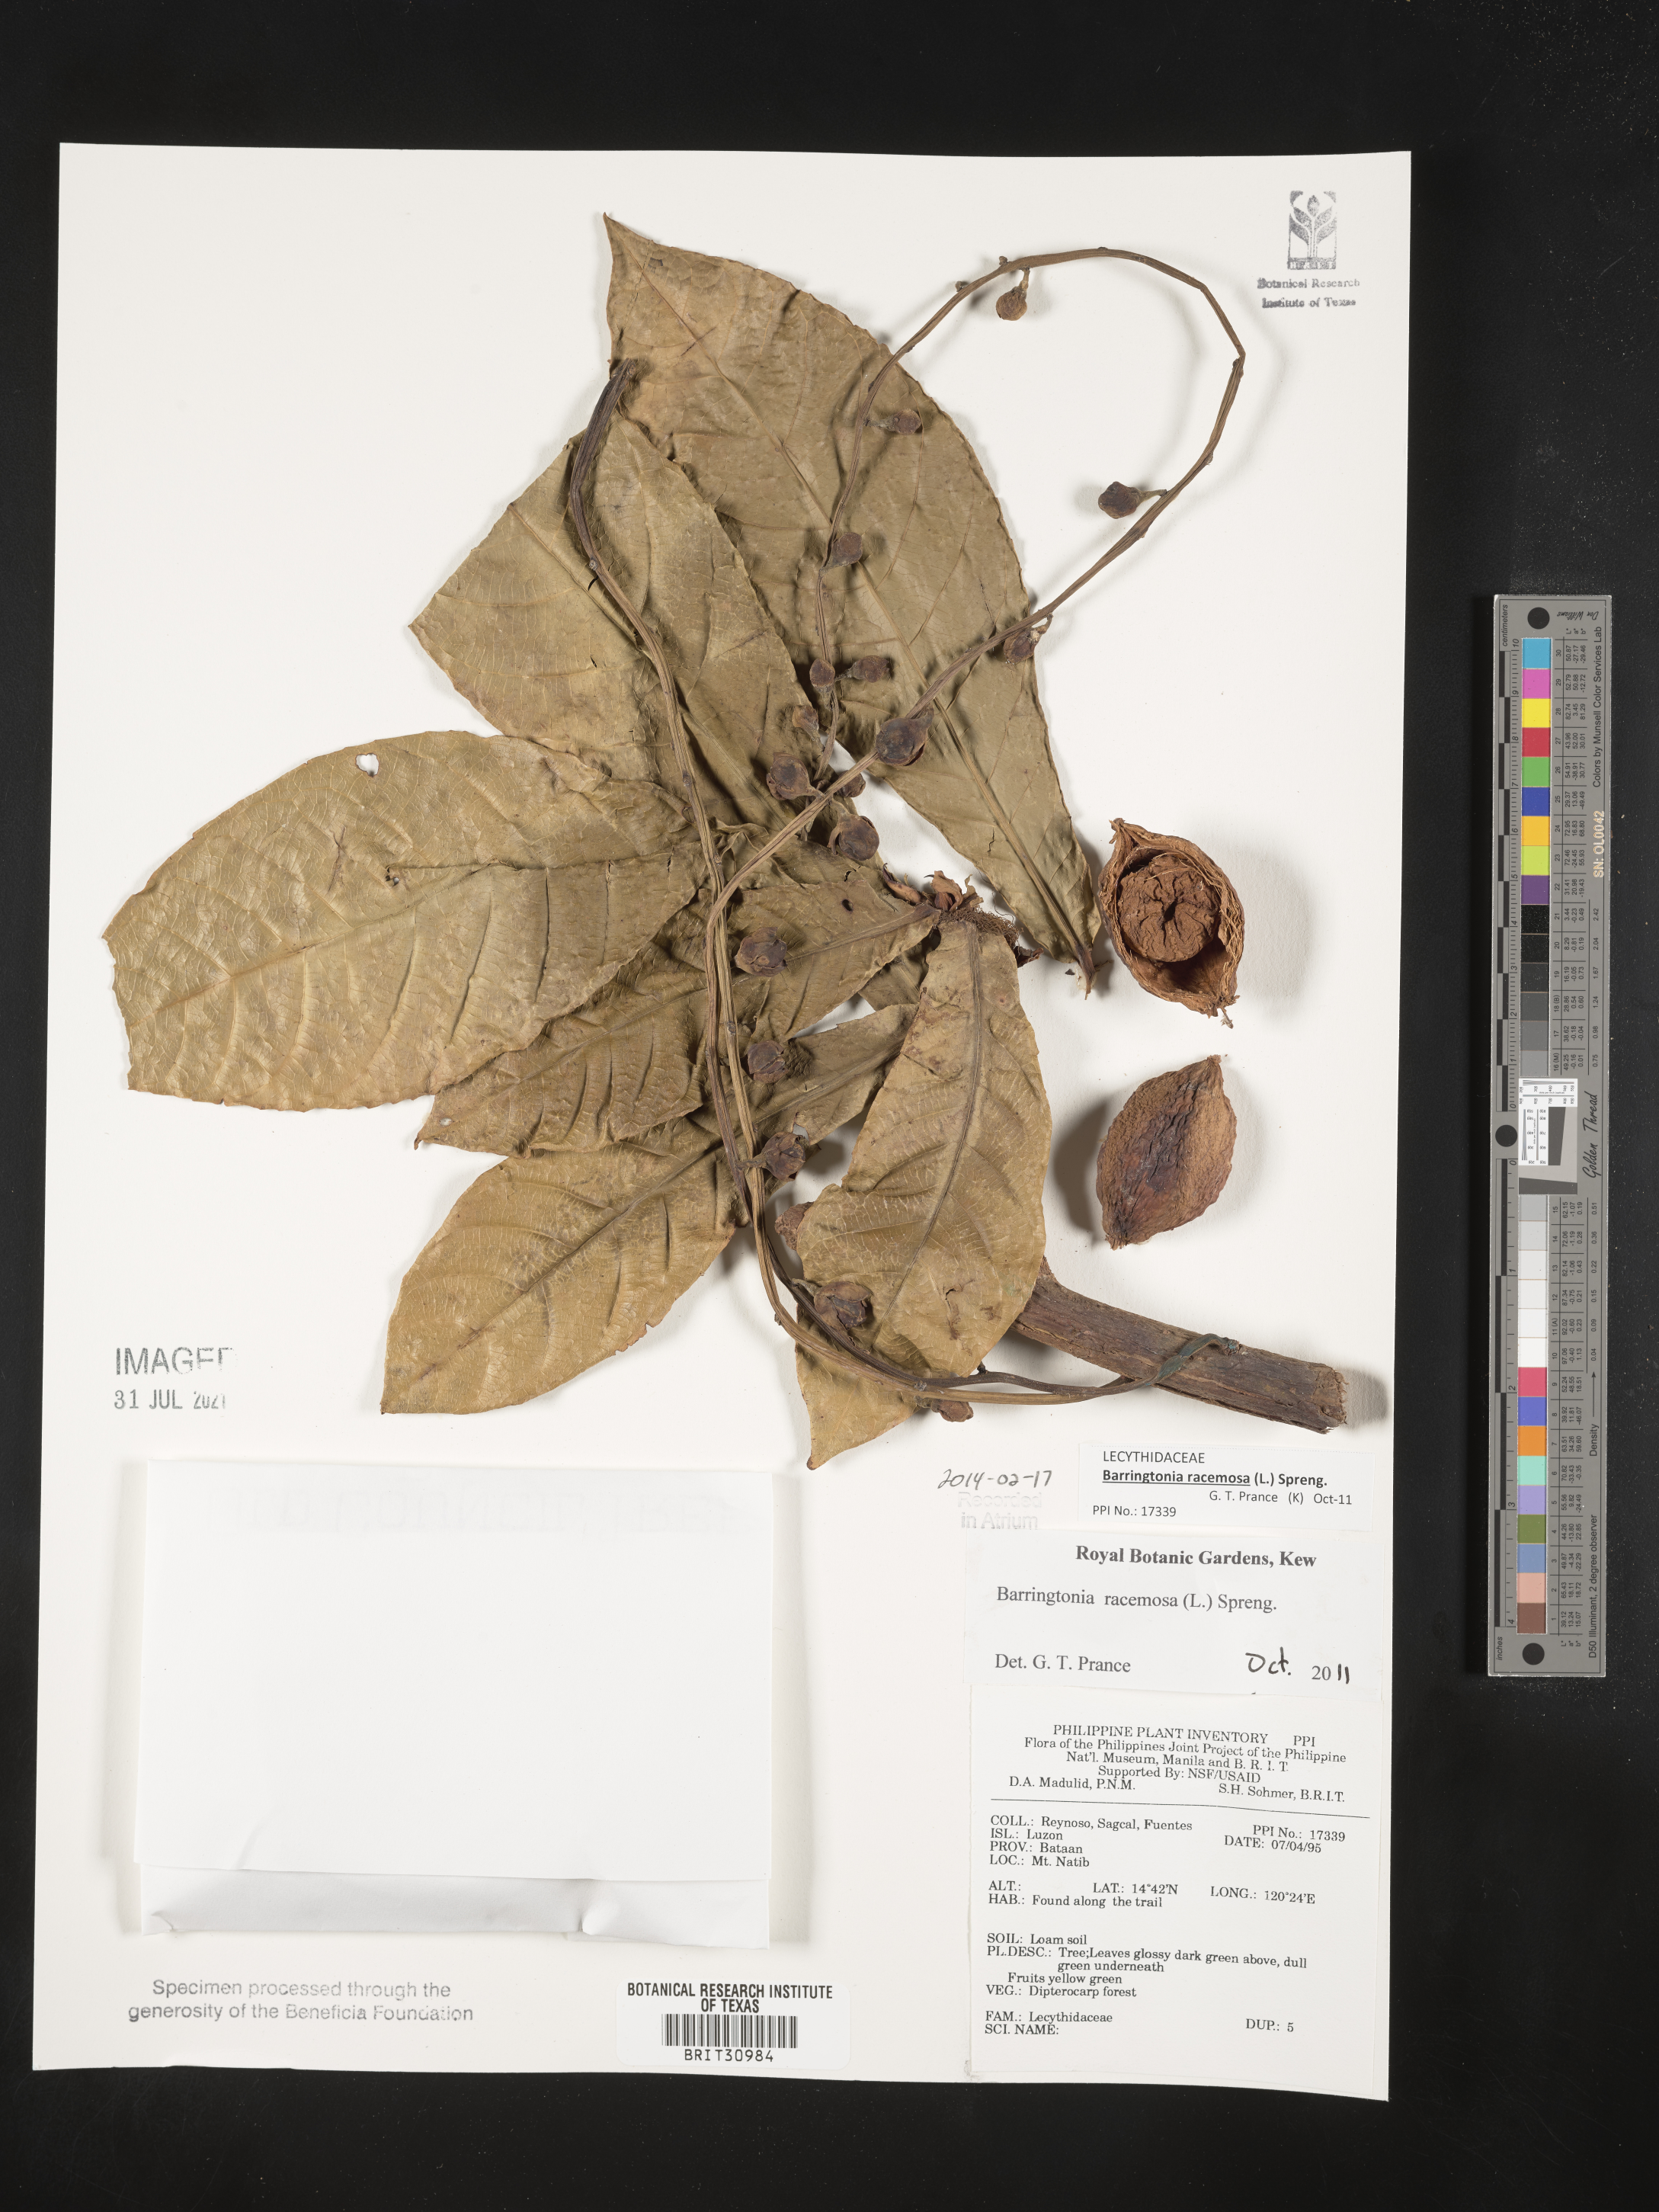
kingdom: Plantae
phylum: Tracheophyta
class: Magnoliopsida
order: Ericales
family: Lecythidaceae
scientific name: Lecythidaceae
